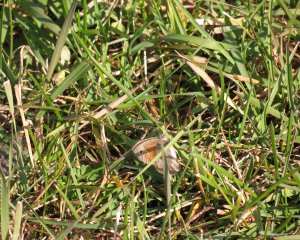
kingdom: Animalia
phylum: Arthropoda
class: Insecta
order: Lepidoptera
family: Nymphalidae
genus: Coenonympha
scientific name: Coenonympha tullia
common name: Large Heath
